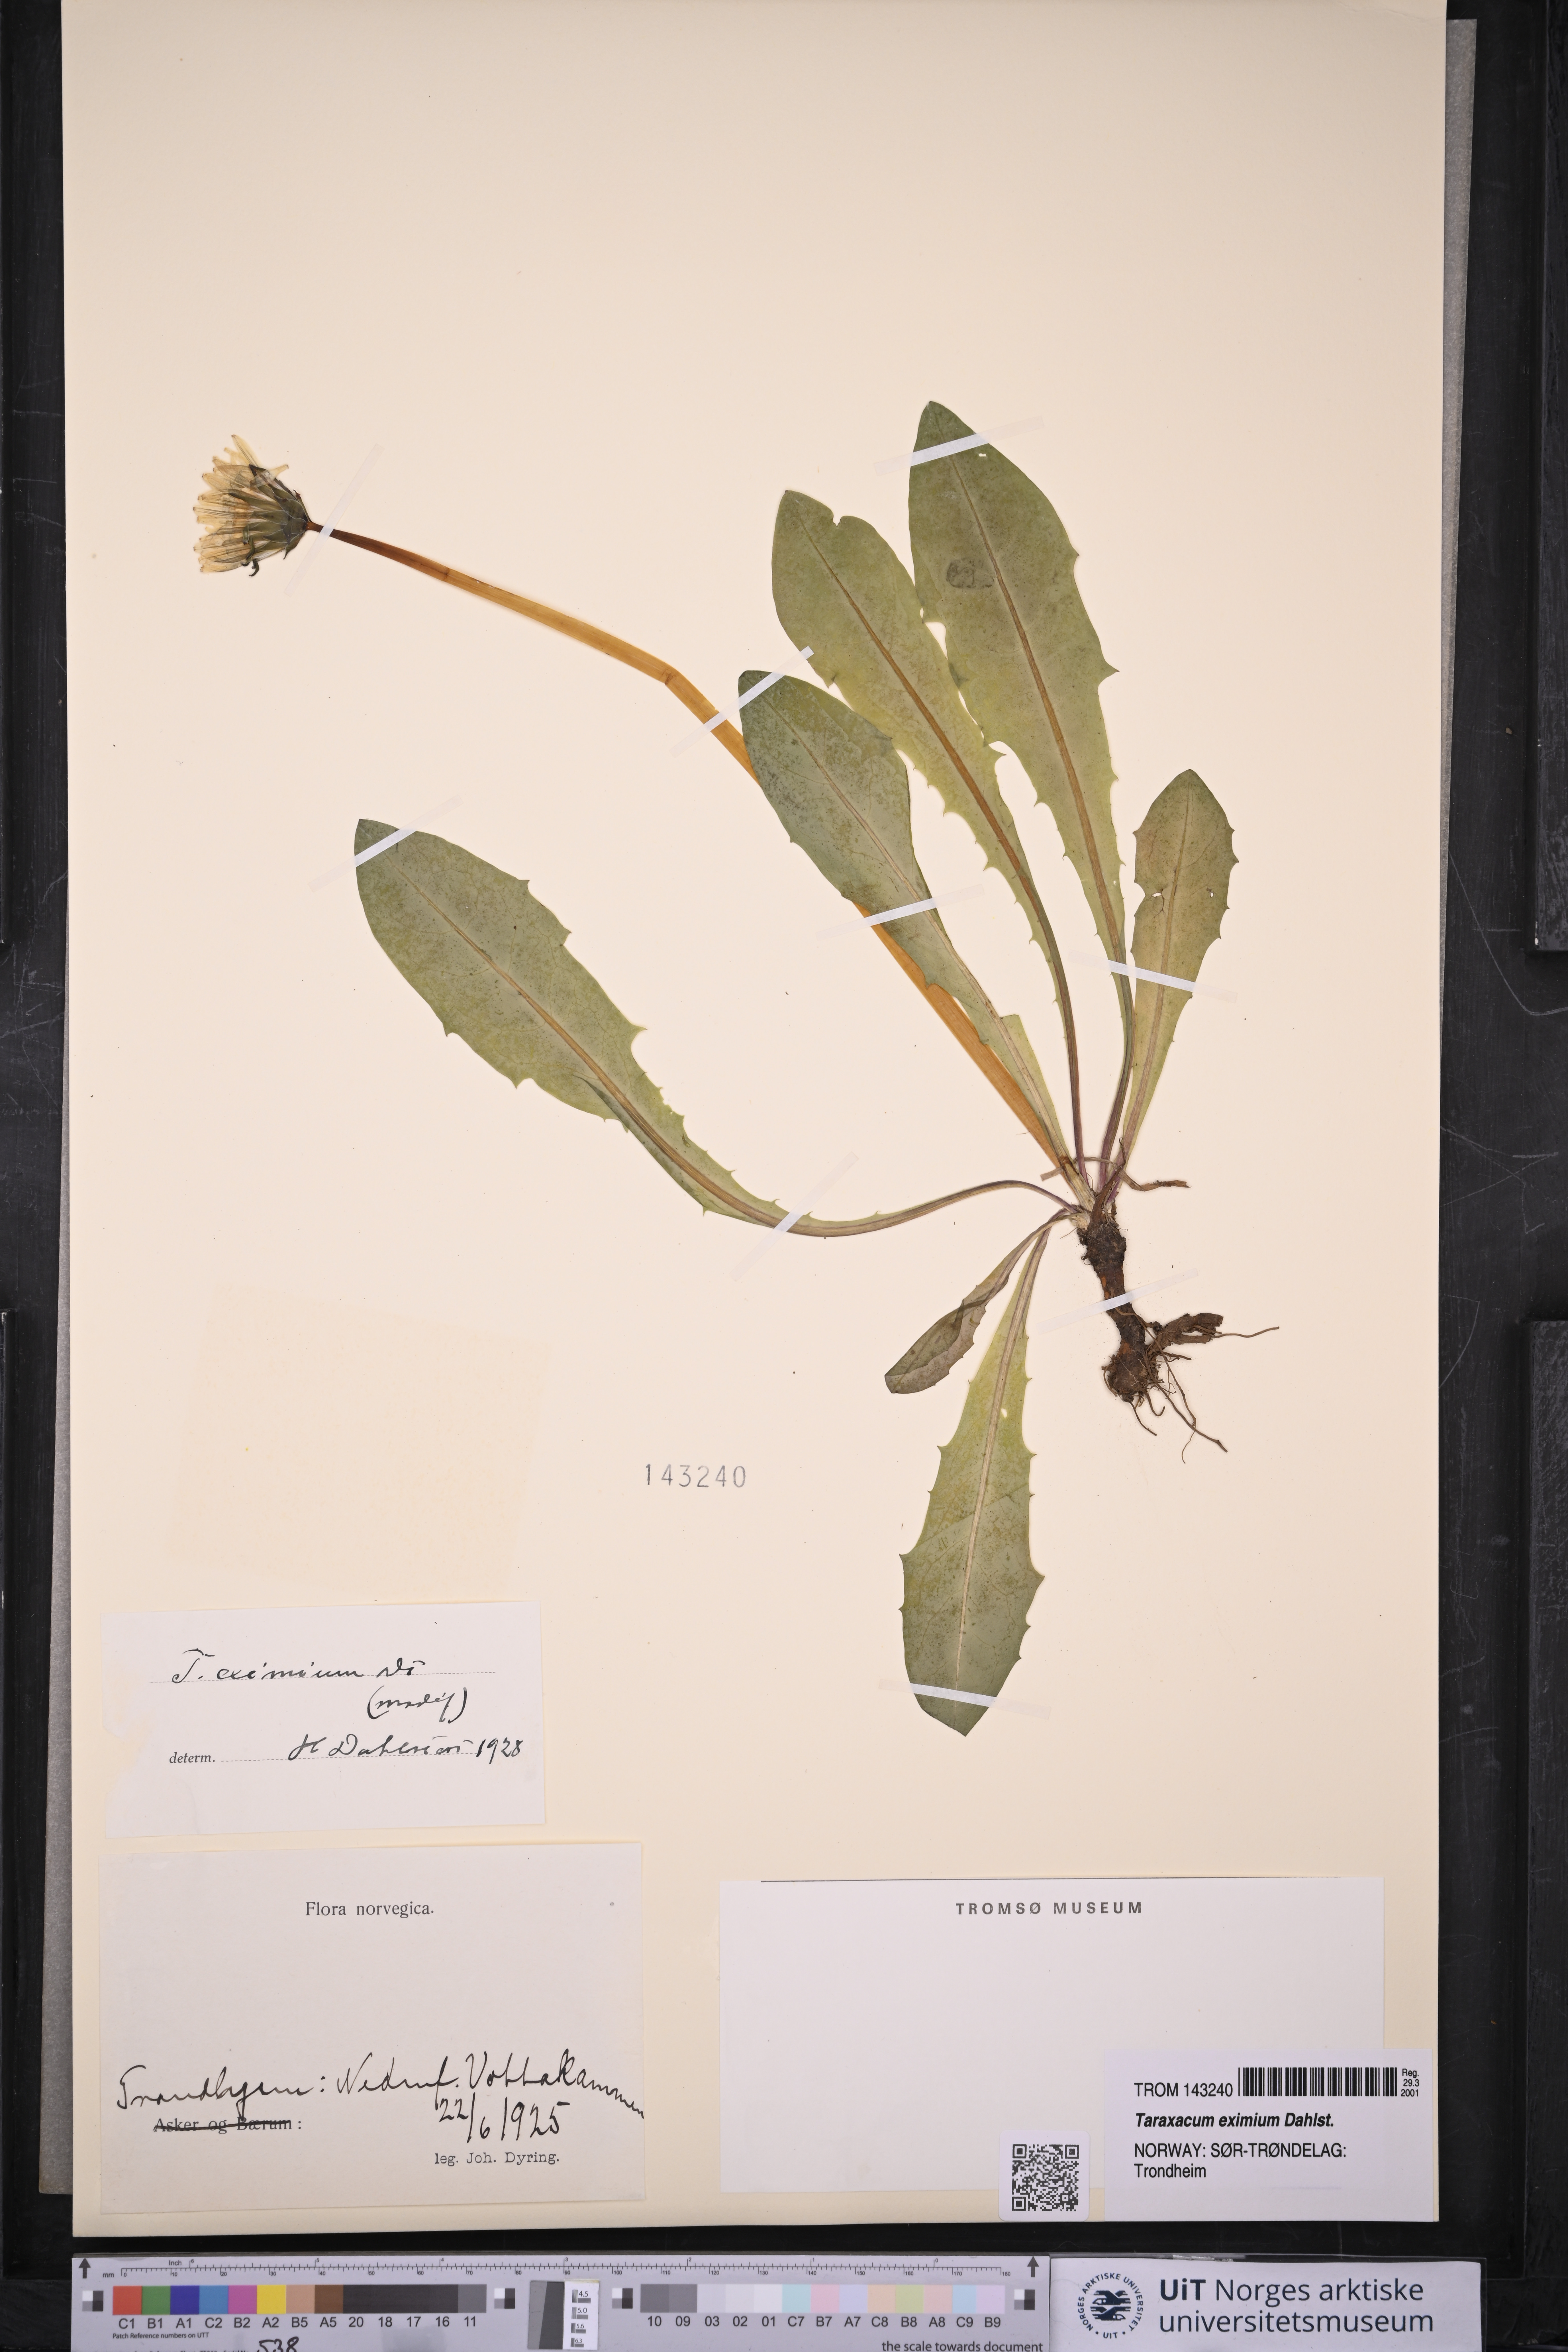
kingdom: Plantae
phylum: Tracheophyta
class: Magnoliopsida
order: Asterales
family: Asteraceae
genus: Taraxacum
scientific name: Taraxacum eximium
